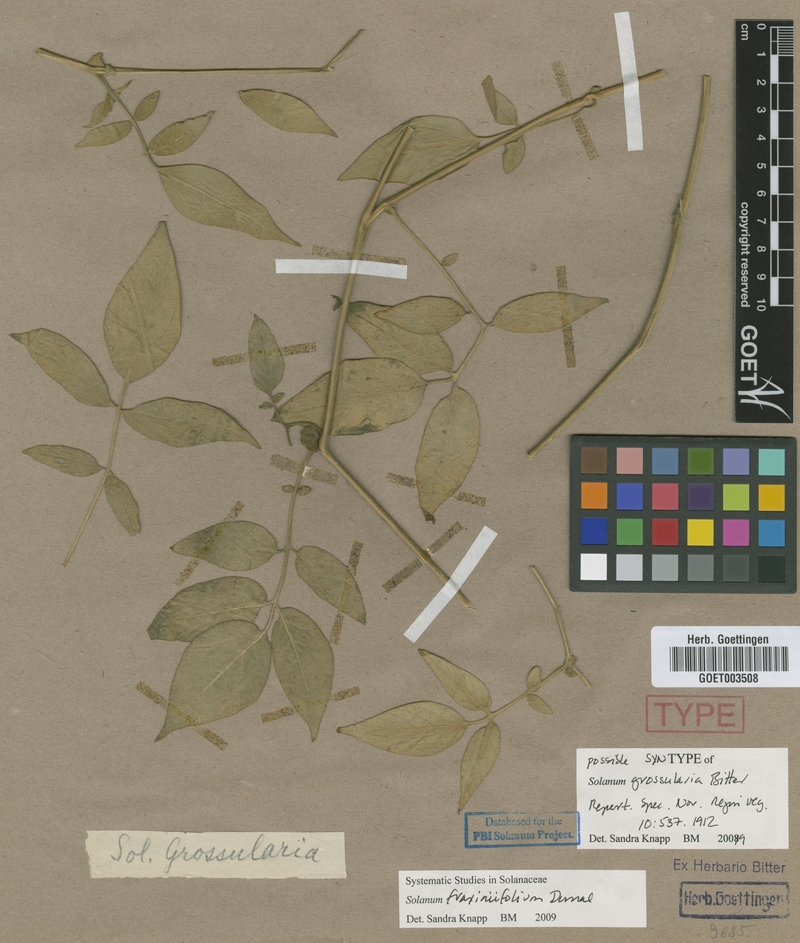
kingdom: Plantae
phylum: Tracheophyta
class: Magnoliopsida
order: Solanales
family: Solanaceae
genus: Solanum
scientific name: Solanum fraxinifolium
